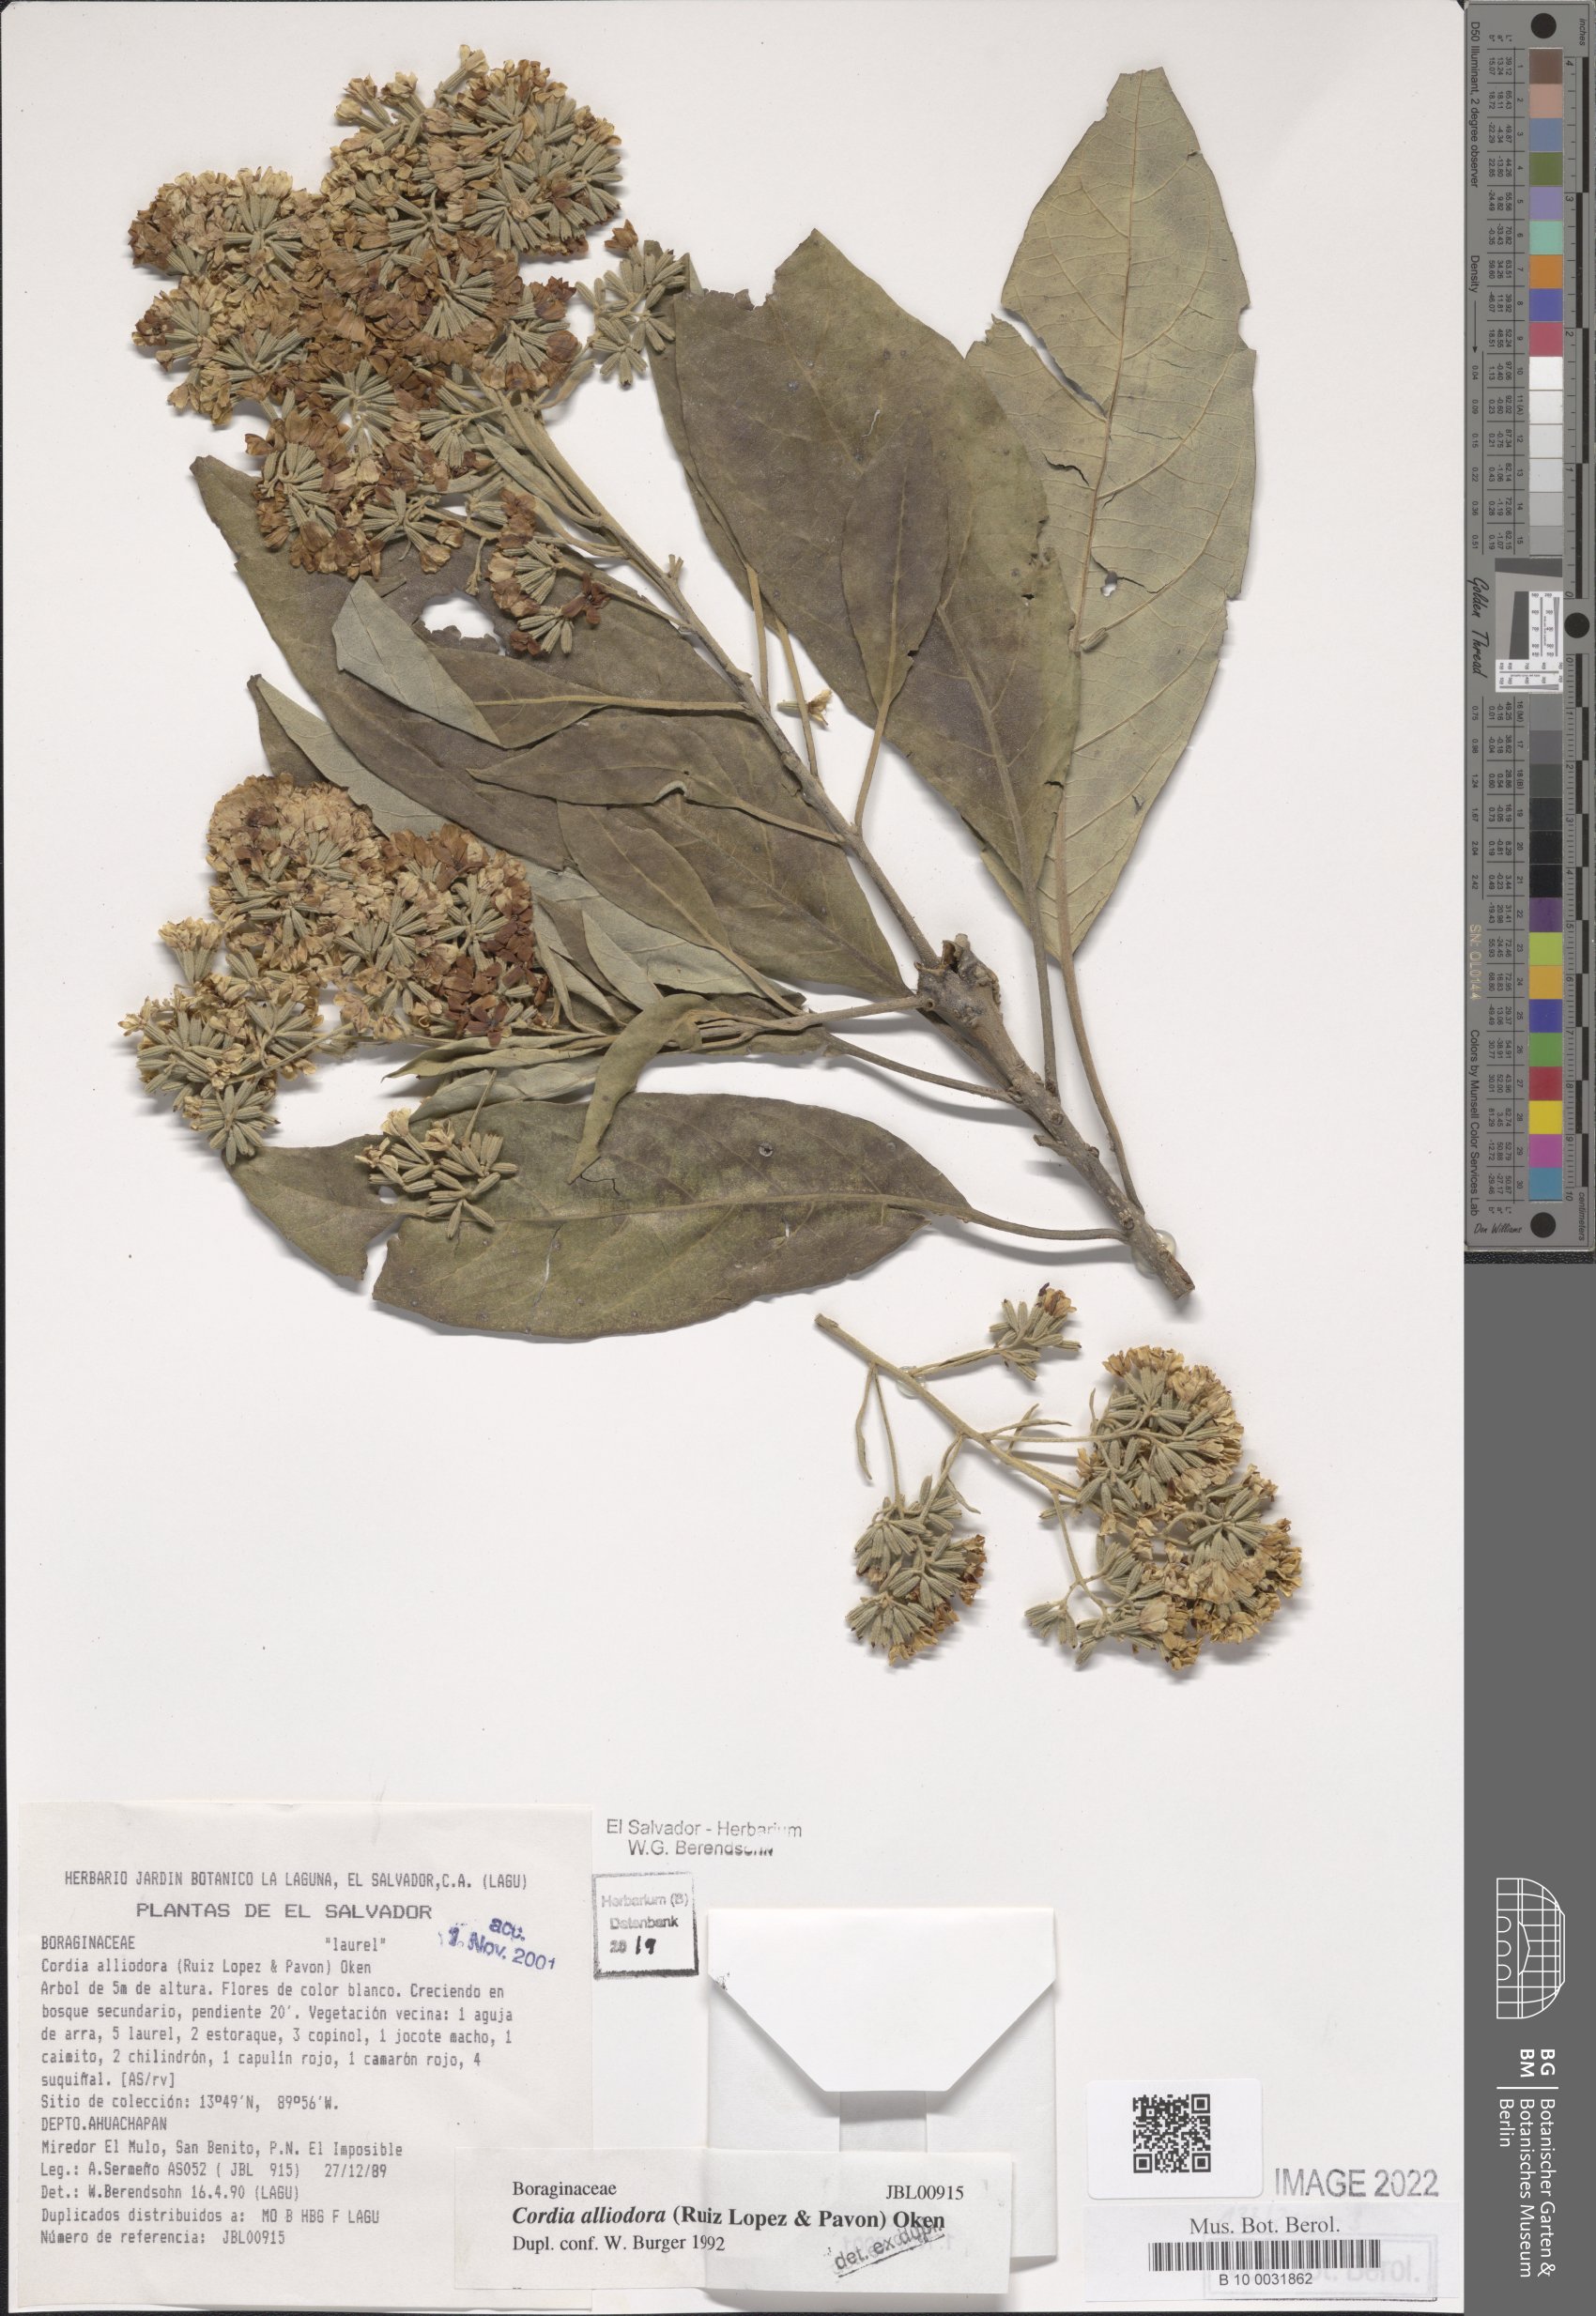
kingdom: Plantae
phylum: Tracheophyta
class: Magnoliopsida
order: Boraginales
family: Cordiaceae
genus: Cordia
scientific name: Cordia alliodora
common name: Spanish elm
